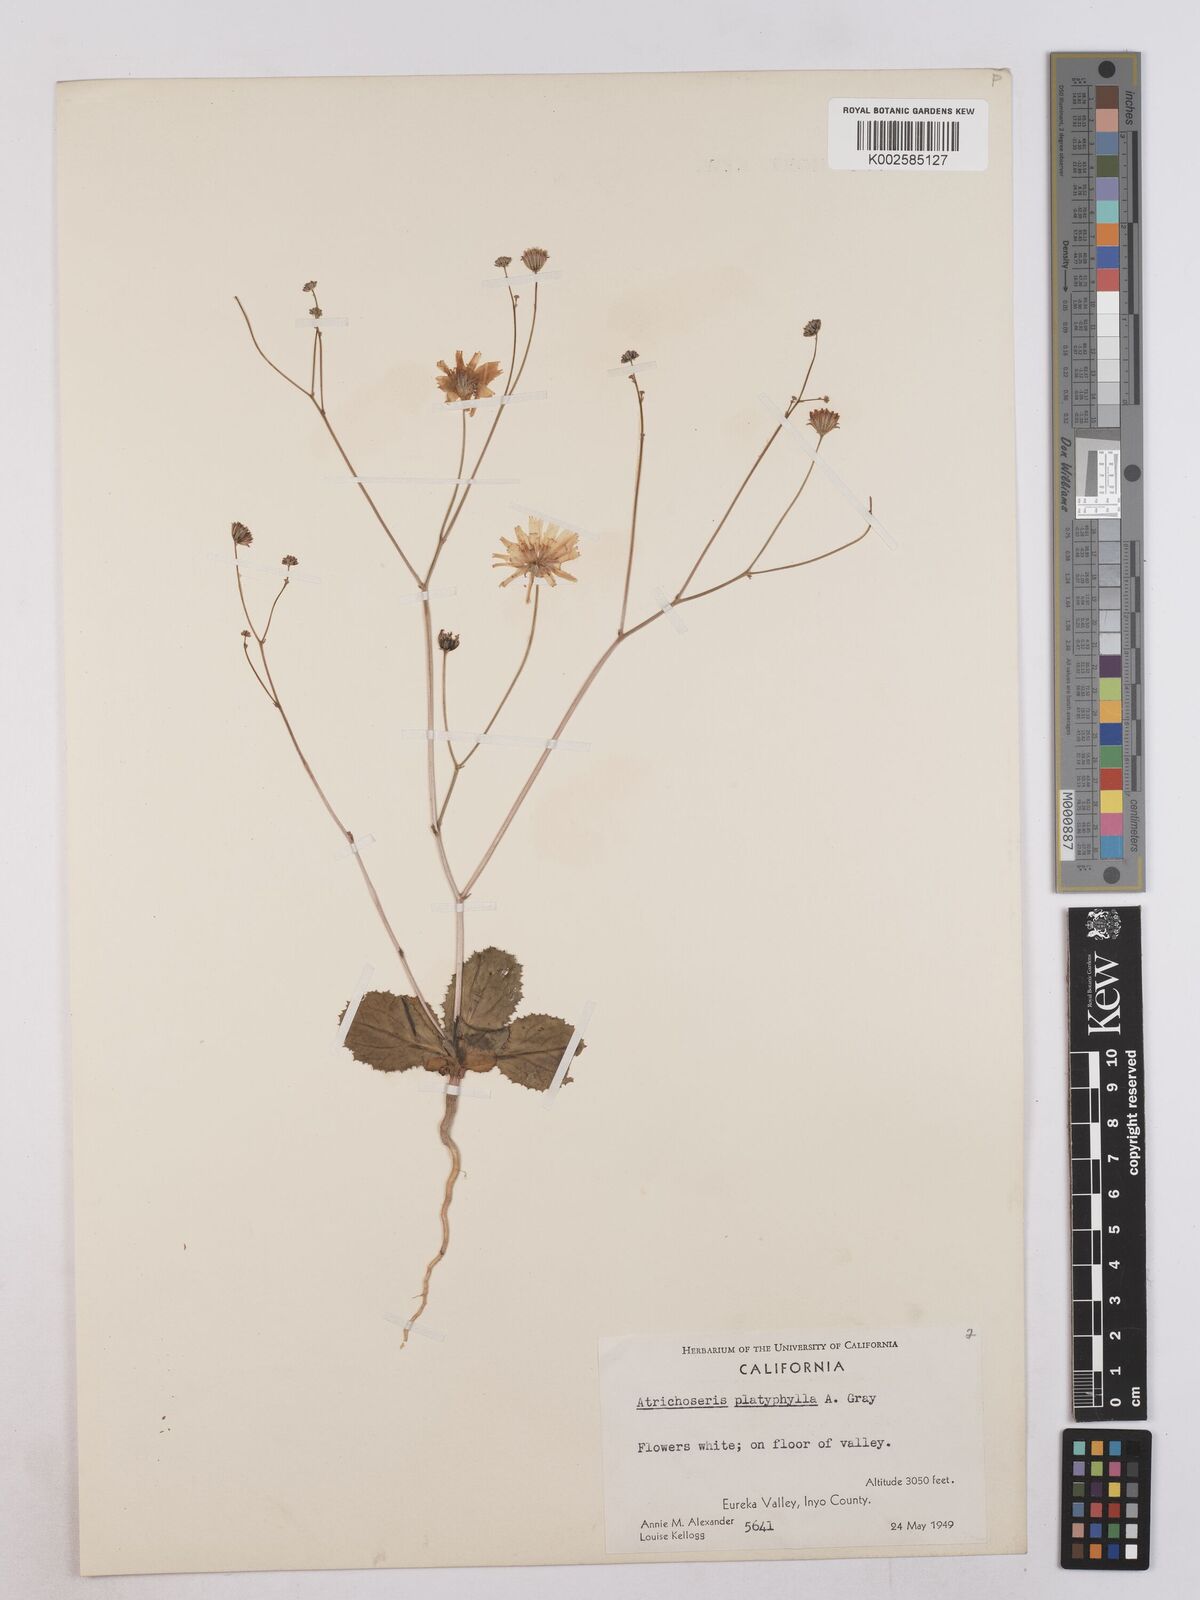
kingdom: Plantae
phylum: Tracheophyta
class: Magnoliopsida
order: Asterales
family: Asteraceae
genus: Atrichoseris
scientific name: Atrichoseris platyphylla
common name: Tobaccoweed
